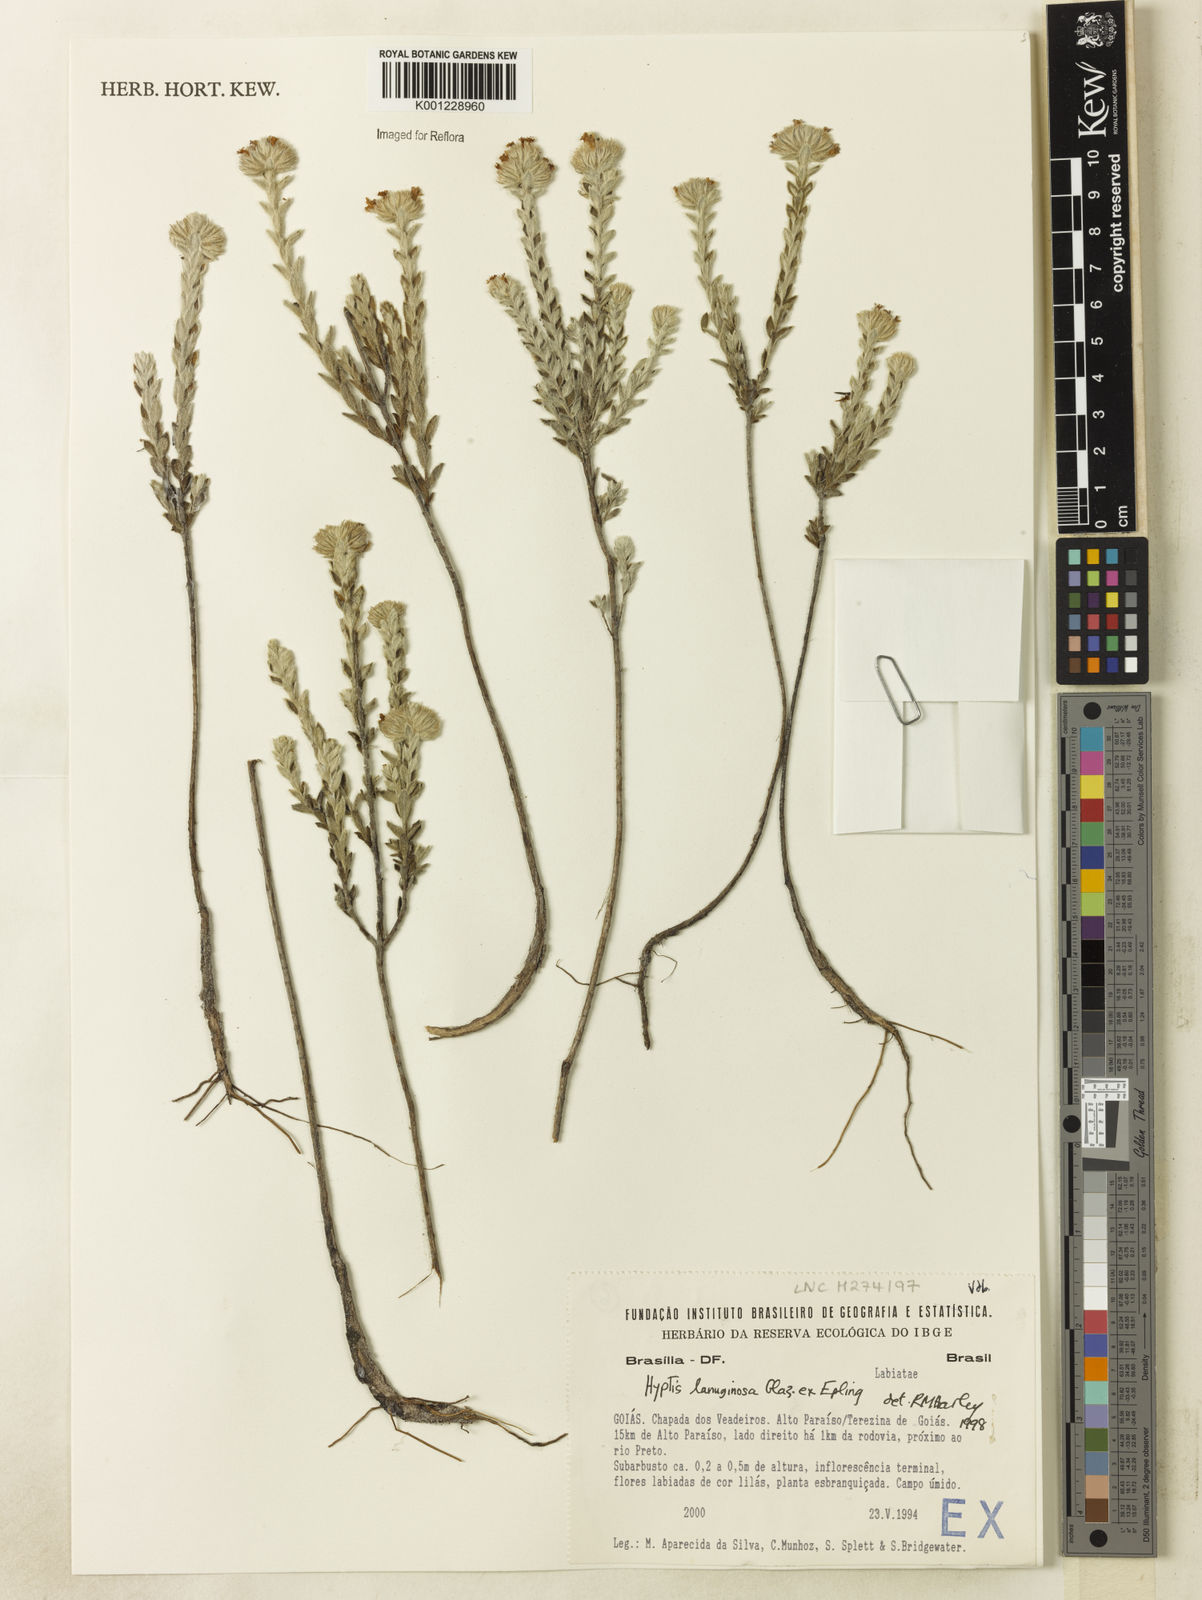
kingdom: Plantae
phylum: Tracheophyta
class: Magnoliopsida
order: Lamiales
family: Lamiaceae
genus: Hyptis
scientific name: Hyptis lanuginosa
